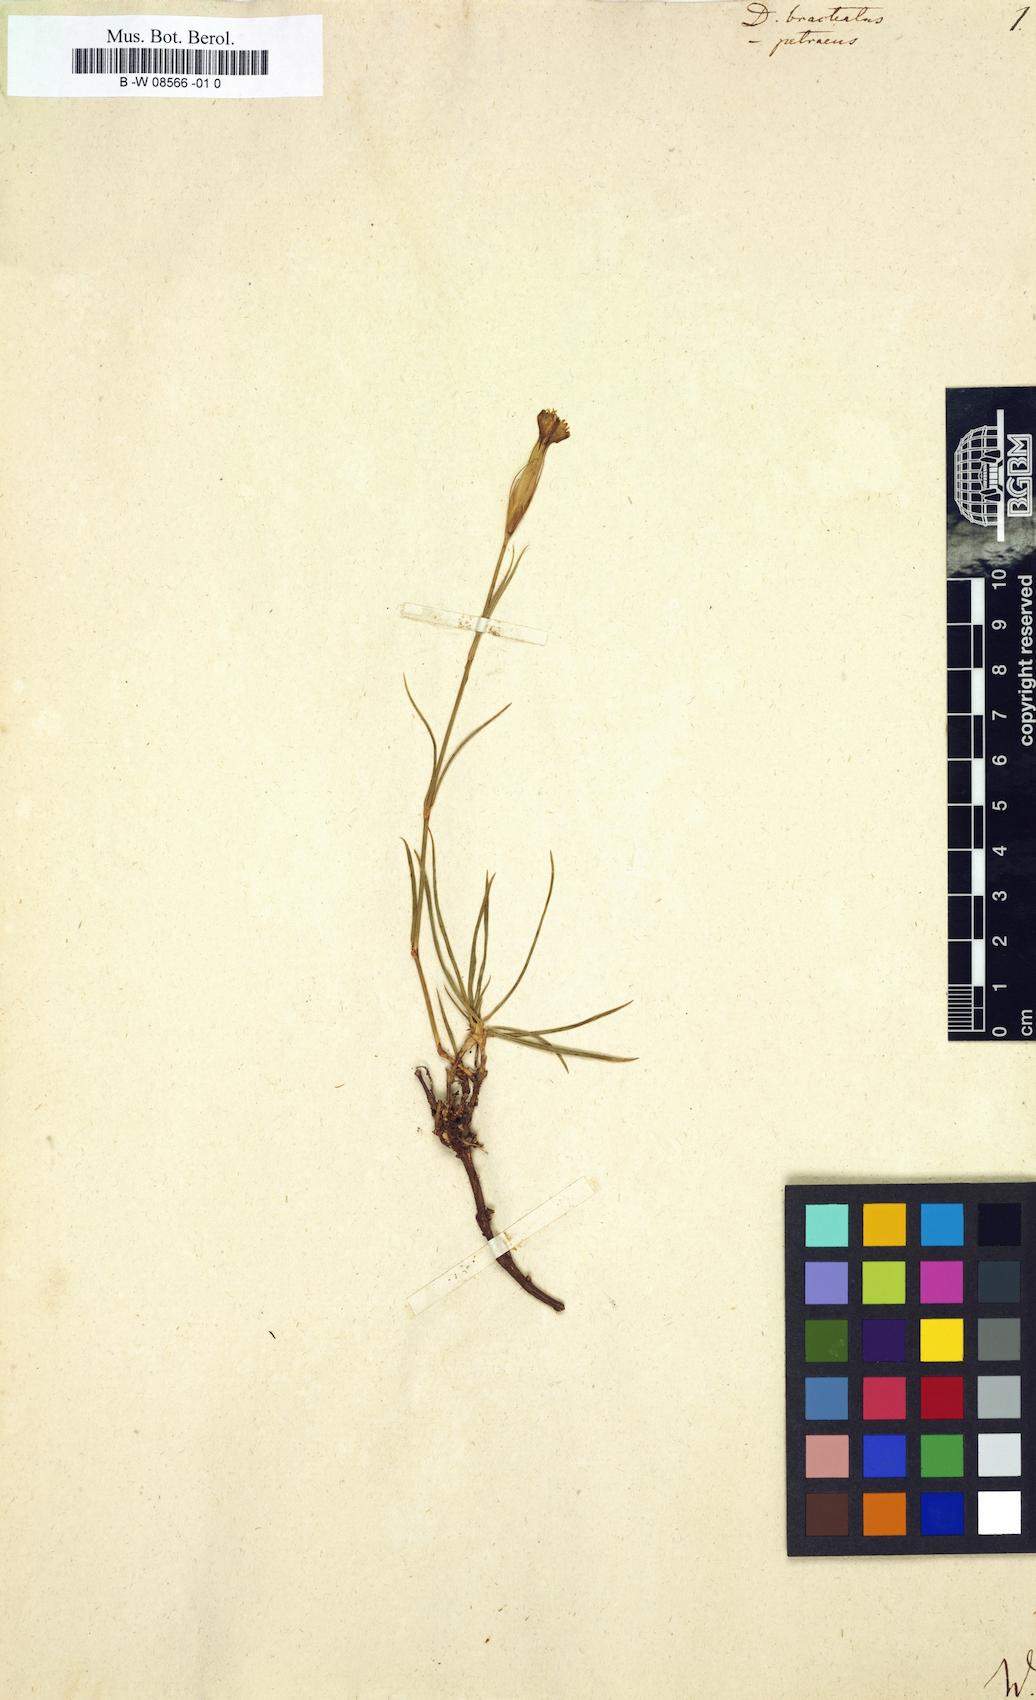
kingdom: Plantae
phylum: Tracheophyta
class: Magnoliopsida
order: Caryophyllales
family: Caryophyllaceae
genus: Dianthus
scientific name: Dianthus cretaceus
